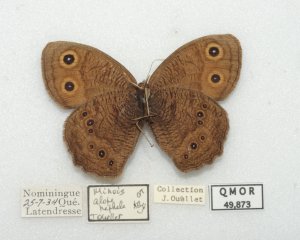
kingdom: Animalia
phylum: Arthropoda
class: Insecta
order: Lepidoptera
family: Nymphalidae
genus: Cercyonis
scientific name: Cercyonis pegala
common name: Common Wood-Nymph
